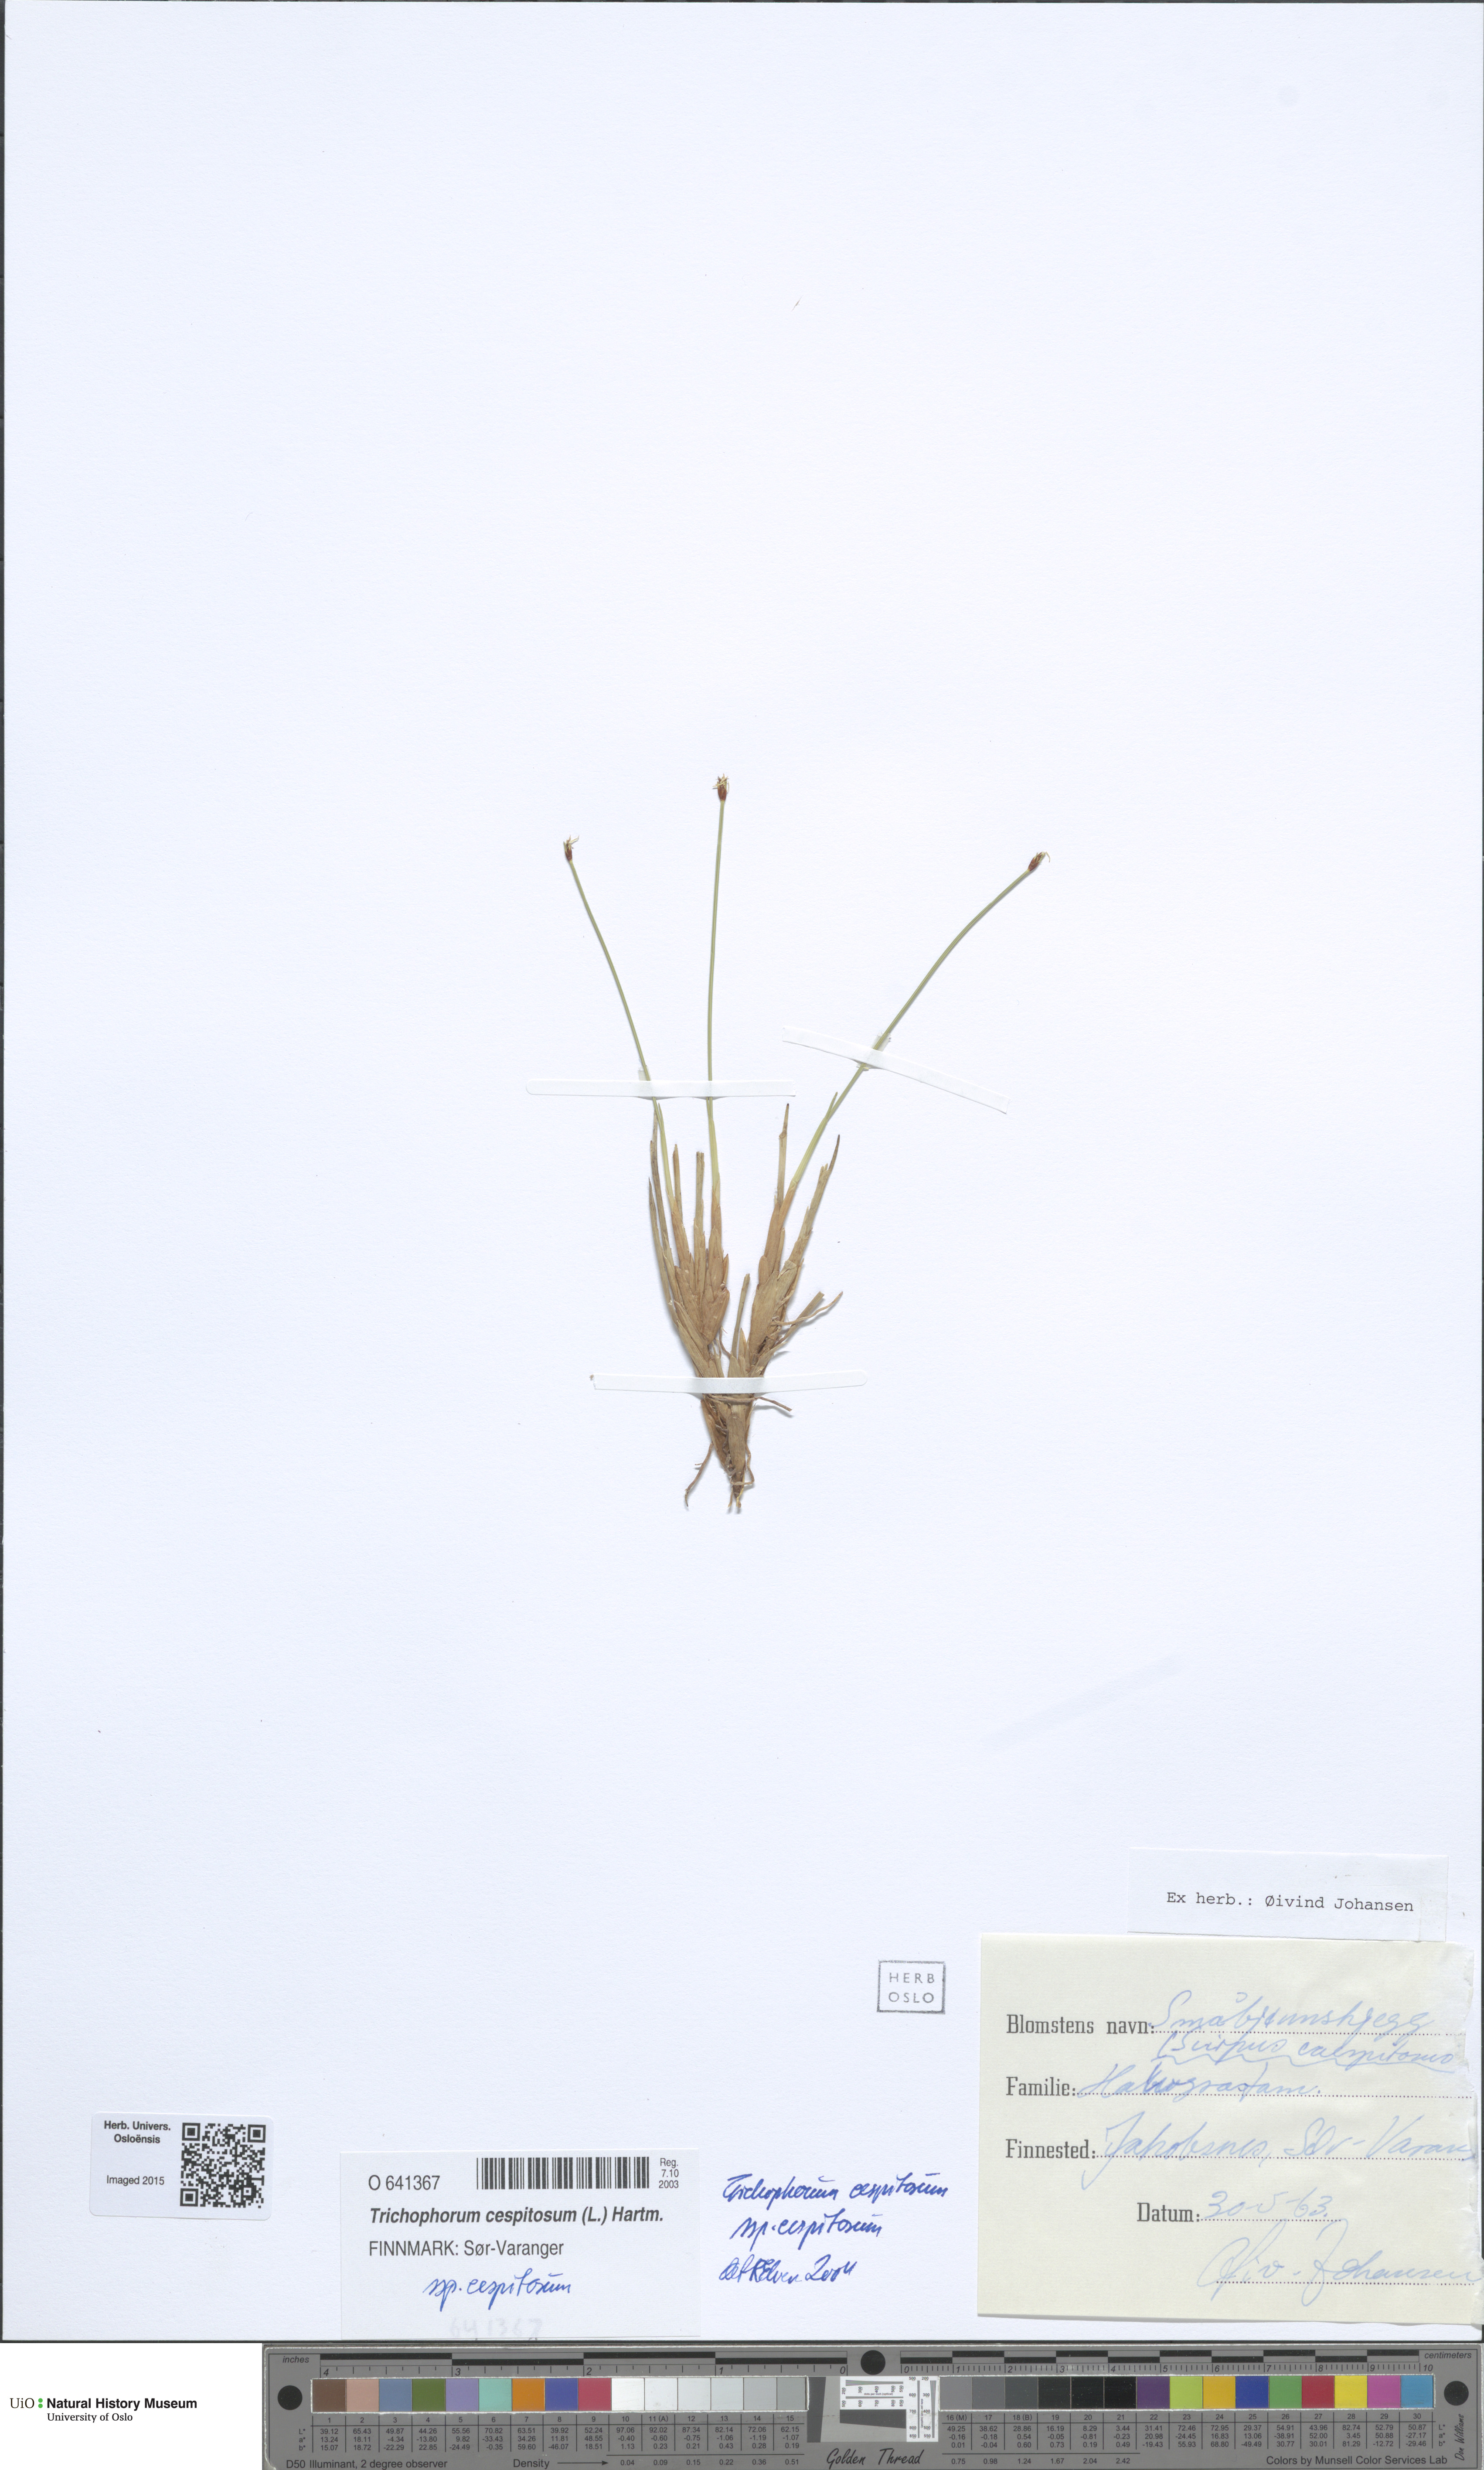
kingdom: Plantae
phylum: Tracheophyta
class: Liliopsida
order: Poales
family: Cyperaceae
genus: Trichophorum
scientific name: Trichophorum cespitosum
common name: Cespitose bulrush
